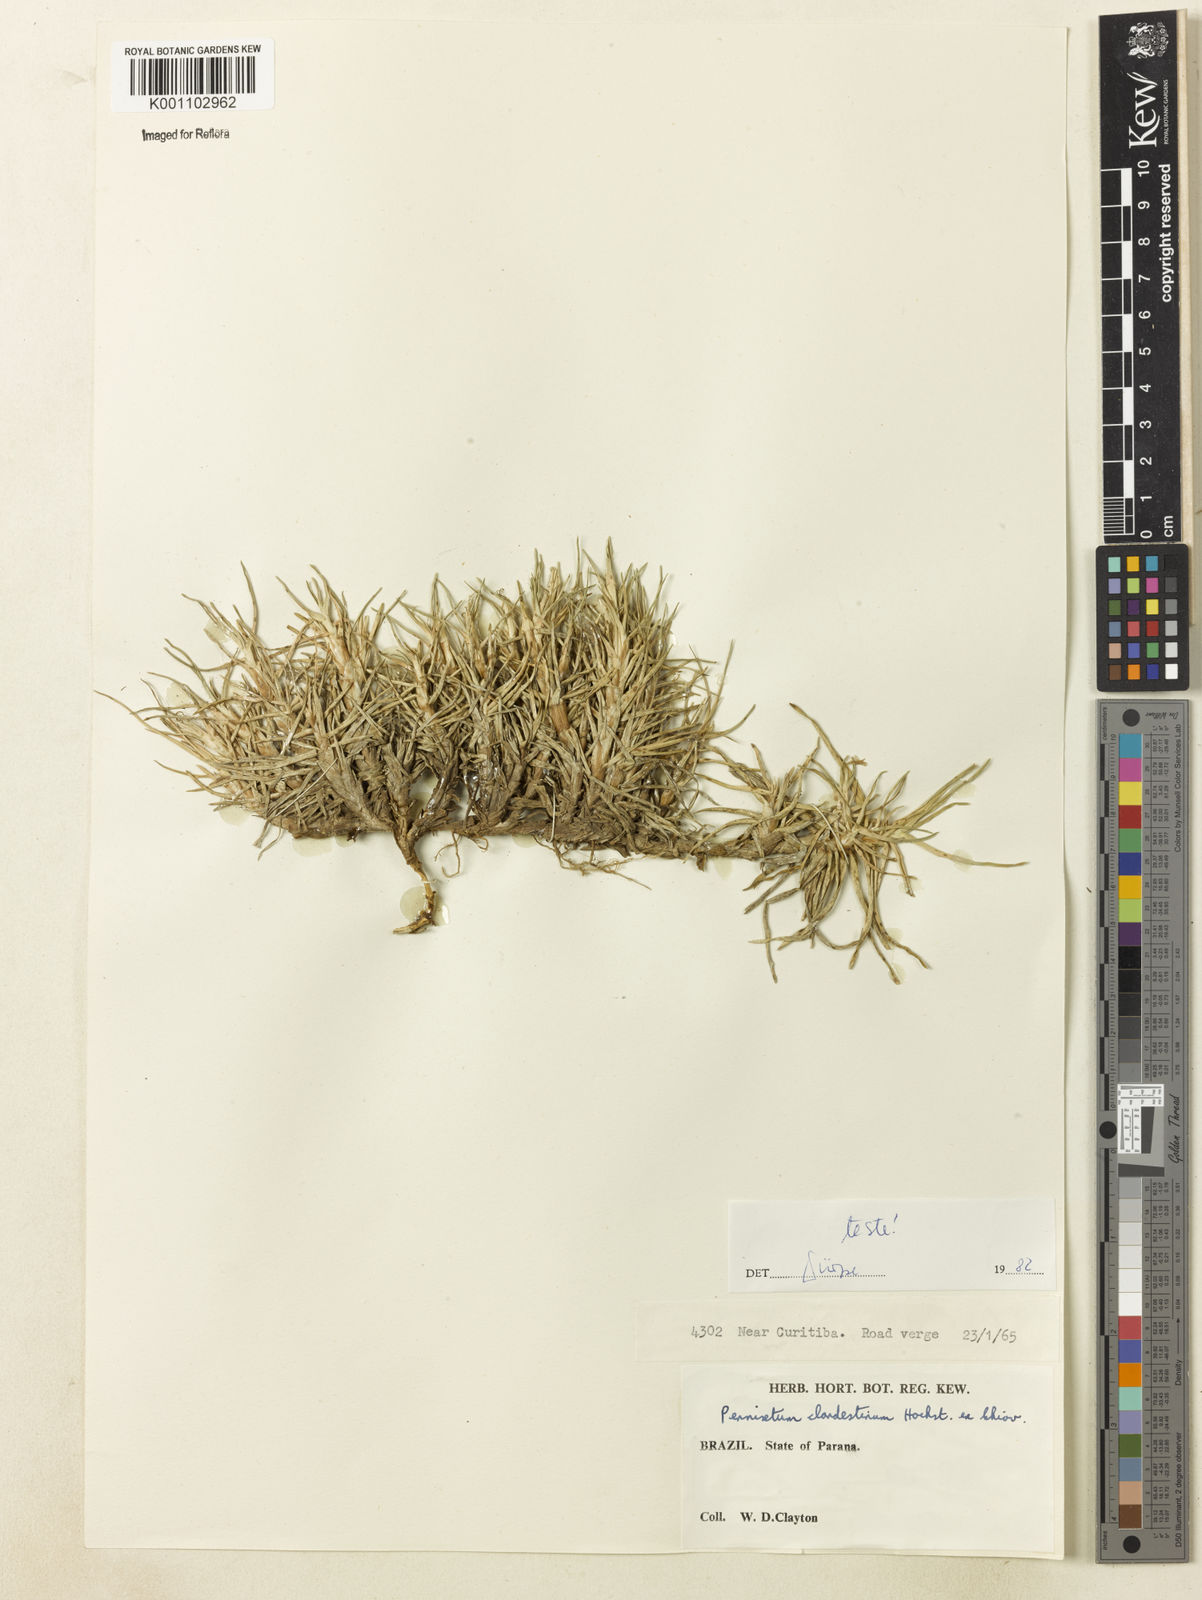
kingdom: Plantae
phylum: Tracheophyta
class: Liliopsida
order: Poales
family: Poaceae
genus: Cenchrus
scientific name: Cenchrus clandestinus
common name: Kikuyugrass
